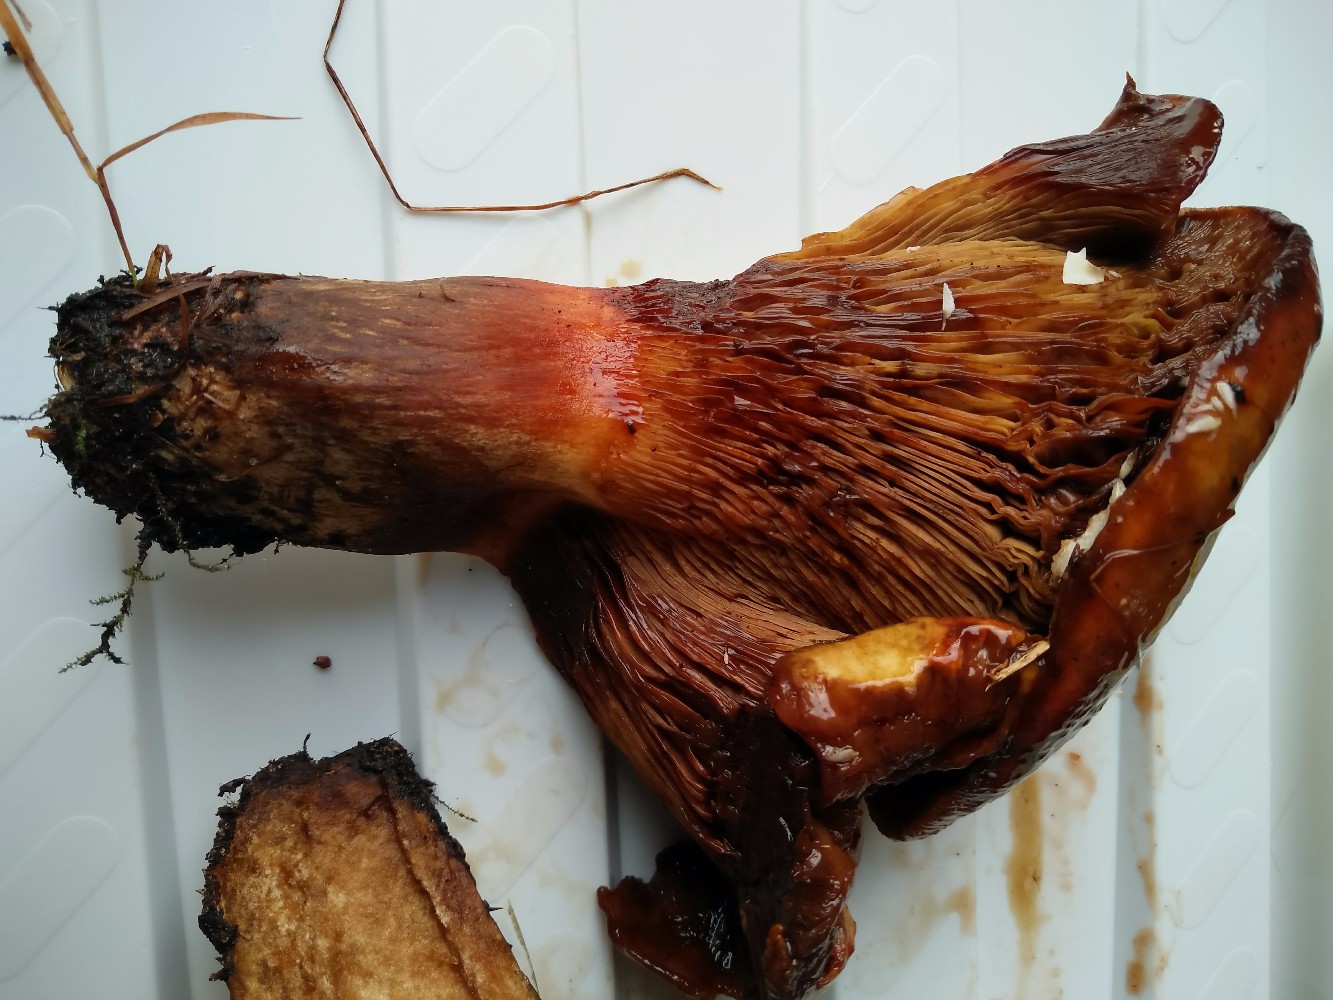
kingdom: Fungi
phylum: Basidiomycota
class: Agaricomycetes
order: Boletales
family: Paxillaceae
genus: Paxillus
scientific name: Paxillus
